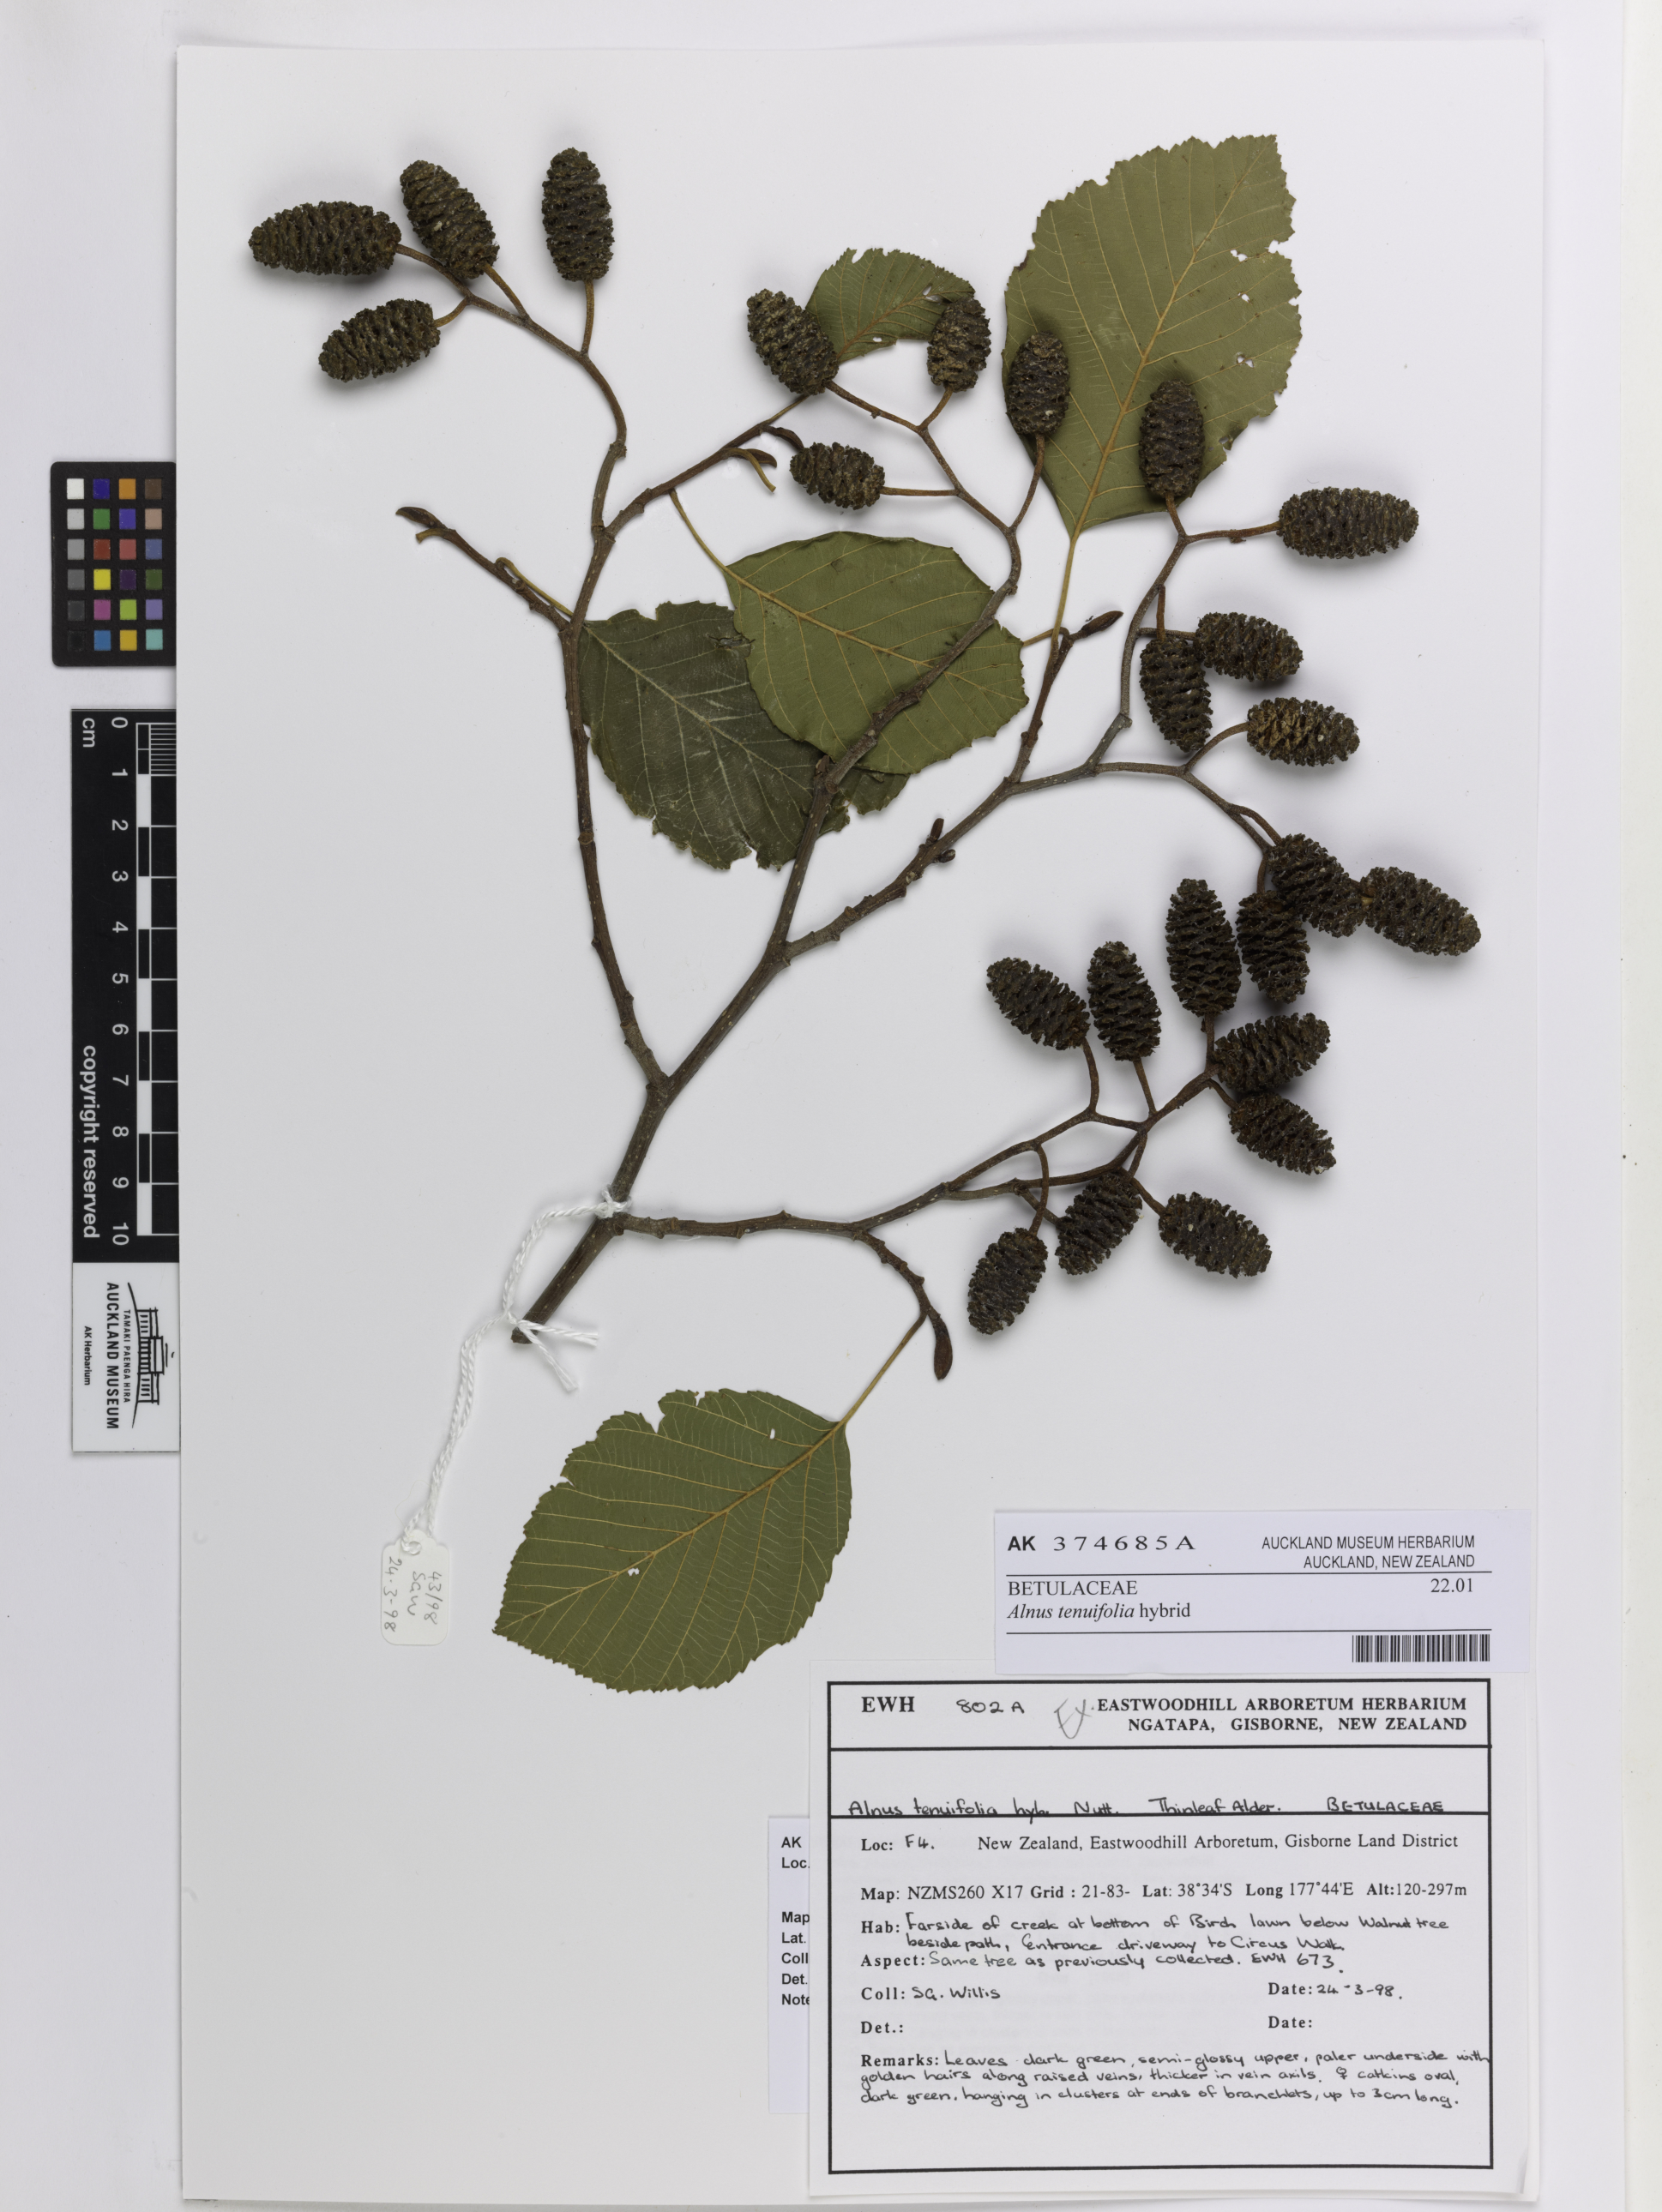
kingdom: Plantae
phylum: Tracheophyta
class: Magnoliopsida
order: Fagales
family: Betulaceae
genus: Alnus
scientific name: Alnus
